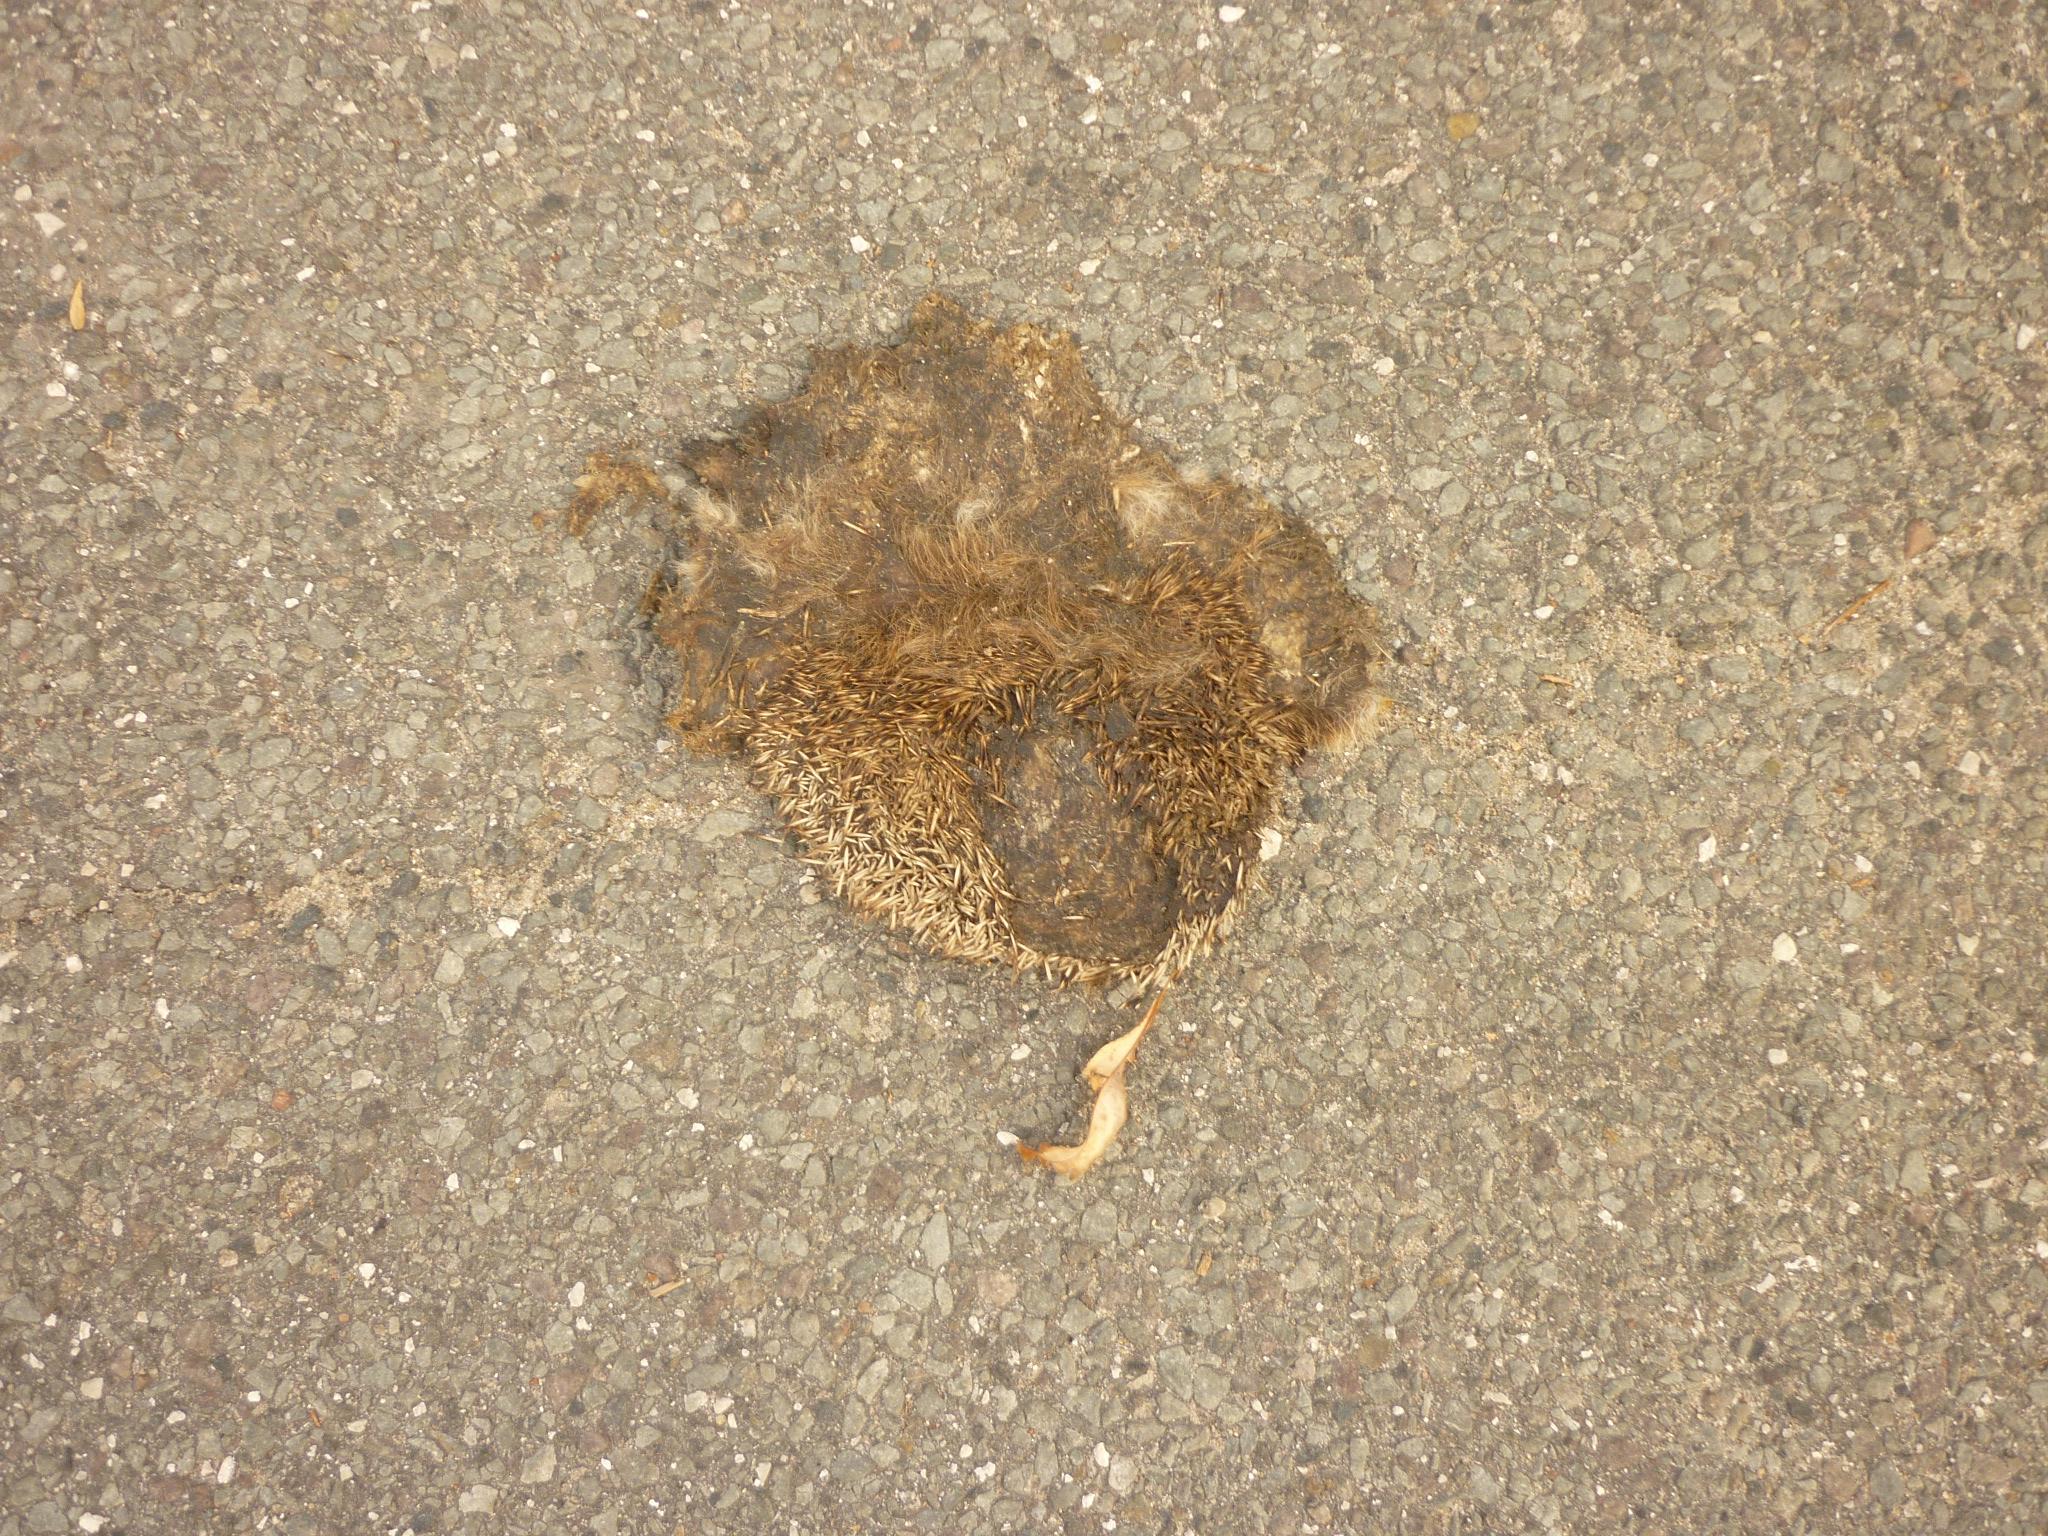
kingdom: Animalia
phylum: Chordata
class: Mammalia
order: Erinaceomorpha
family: Erinaceidae
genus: Erinaceus
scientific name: Erinaceus
